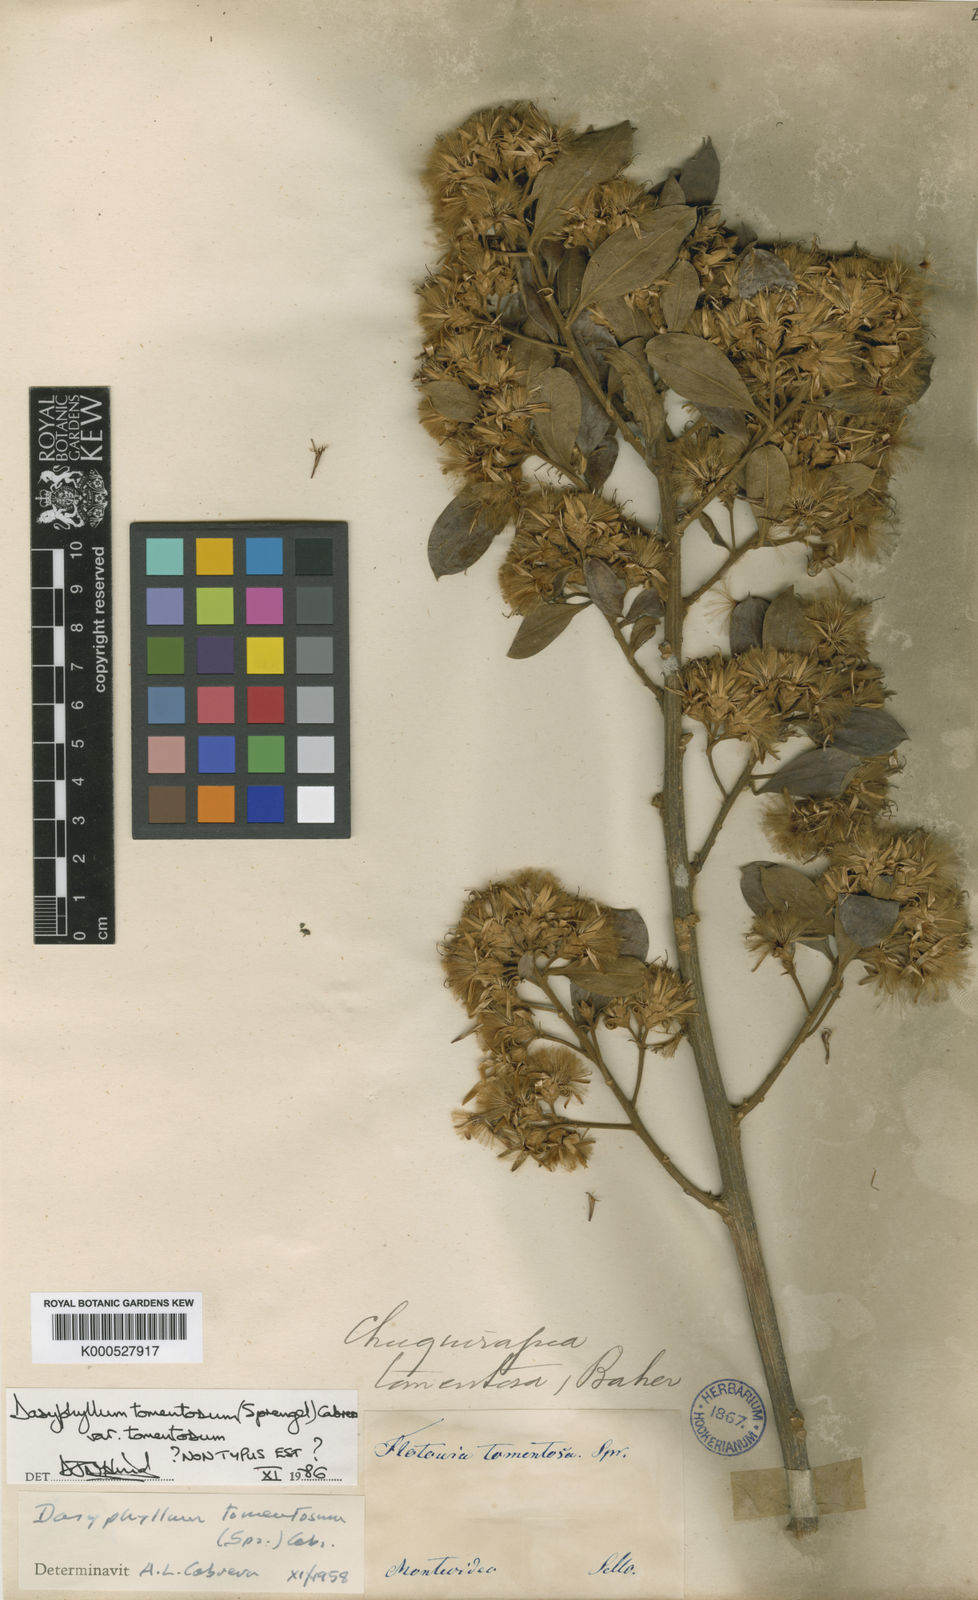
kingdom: Plantae
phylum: Tracheophyta
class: Magnoliopsida
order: Asterales
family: Asteraceae
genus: Dasyphyllum
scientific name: Dasyphyllum tomentosum
